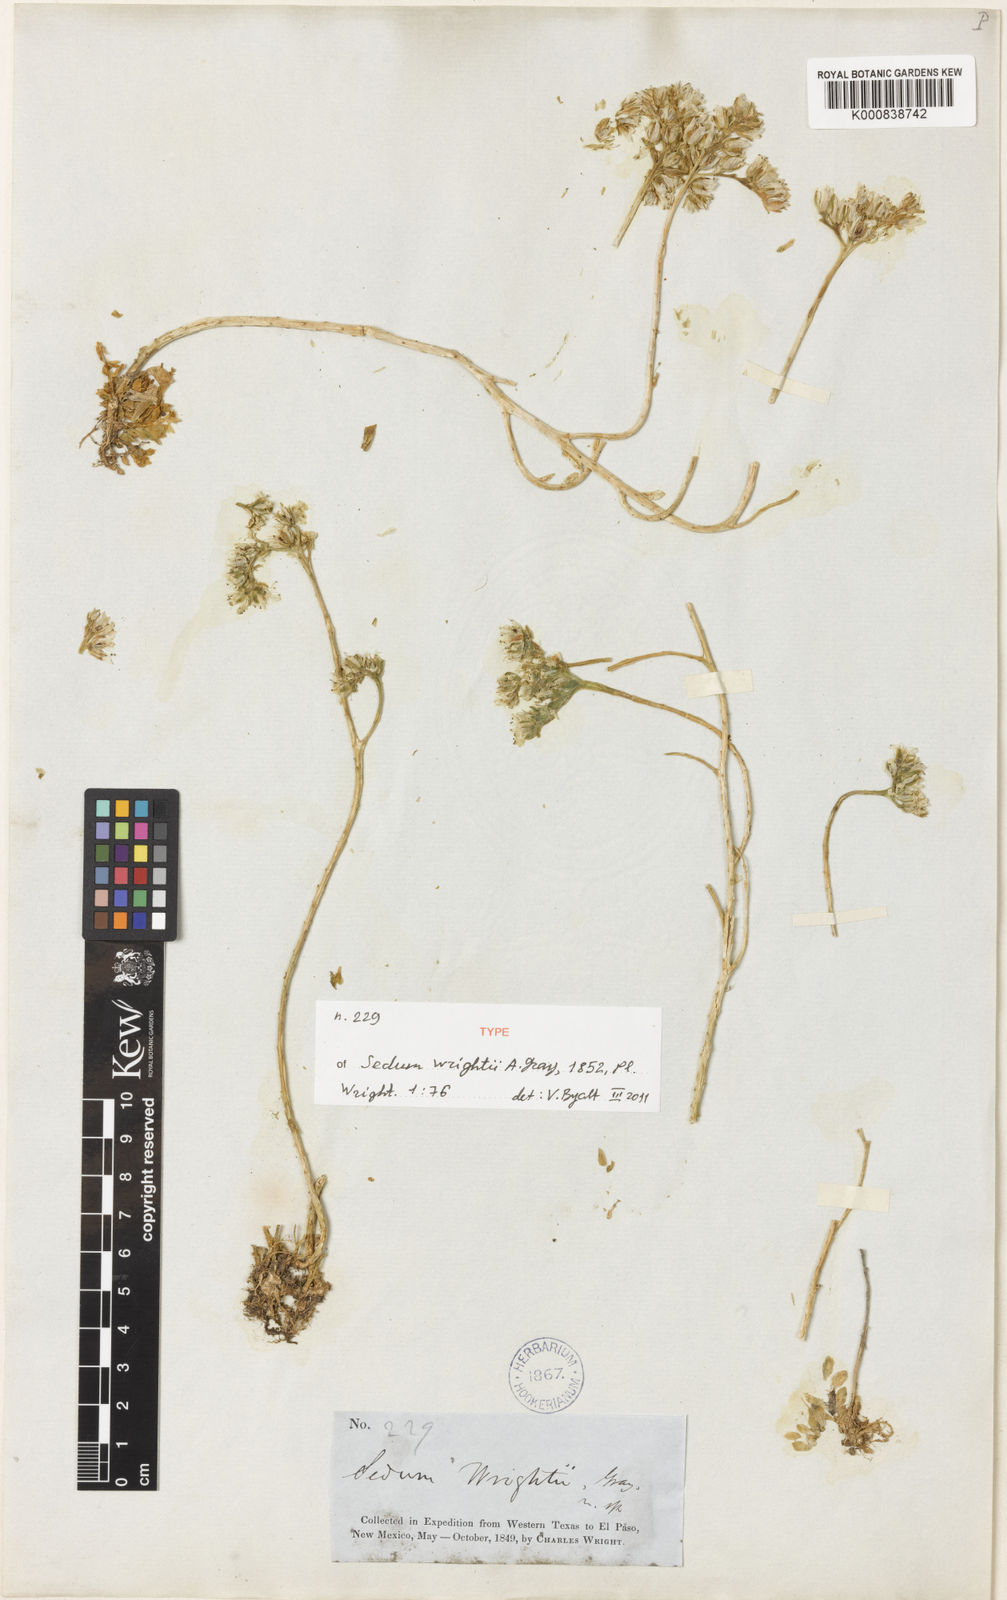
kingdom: Plantae
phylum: Tracheophyta
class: Magnoliopsida
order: Saxifragales
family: Crassulaceae
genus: Sedum
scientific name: Sedum wrightii
